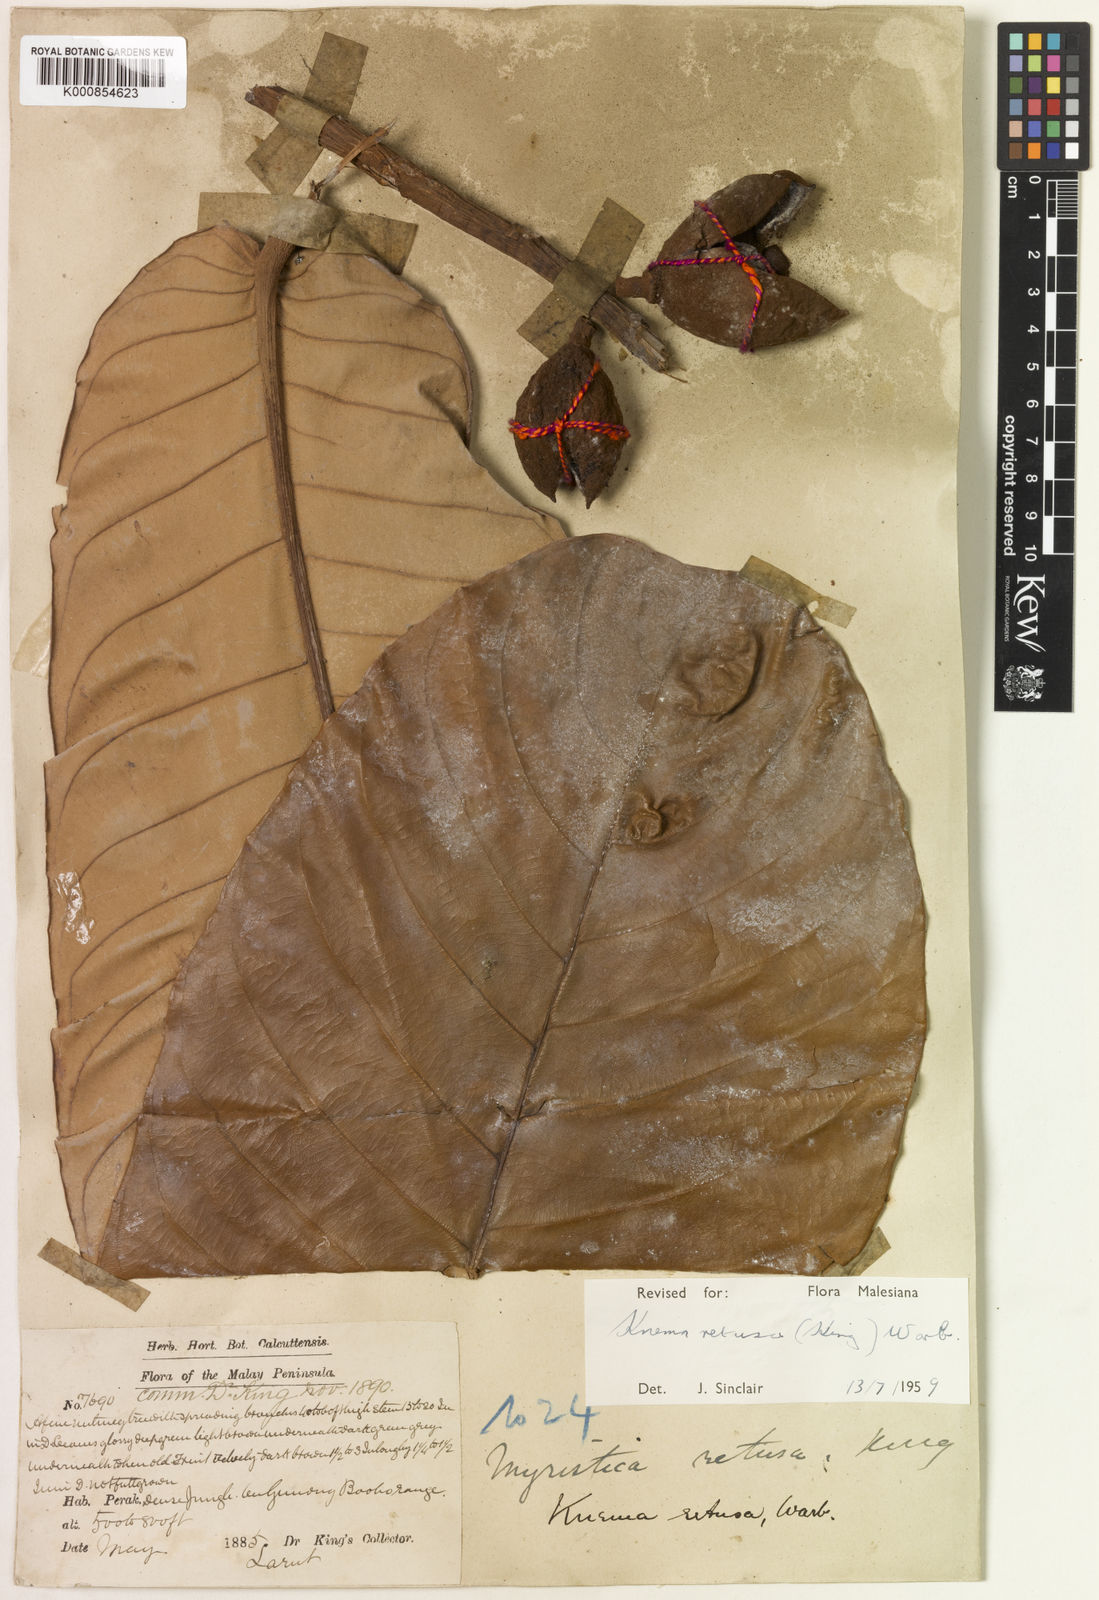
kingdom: Plantae
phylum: Tracheophyta
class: Magnoliopsida
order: Magnoliales
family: Myristicaceae
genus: Knema
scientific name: Knema retusa
